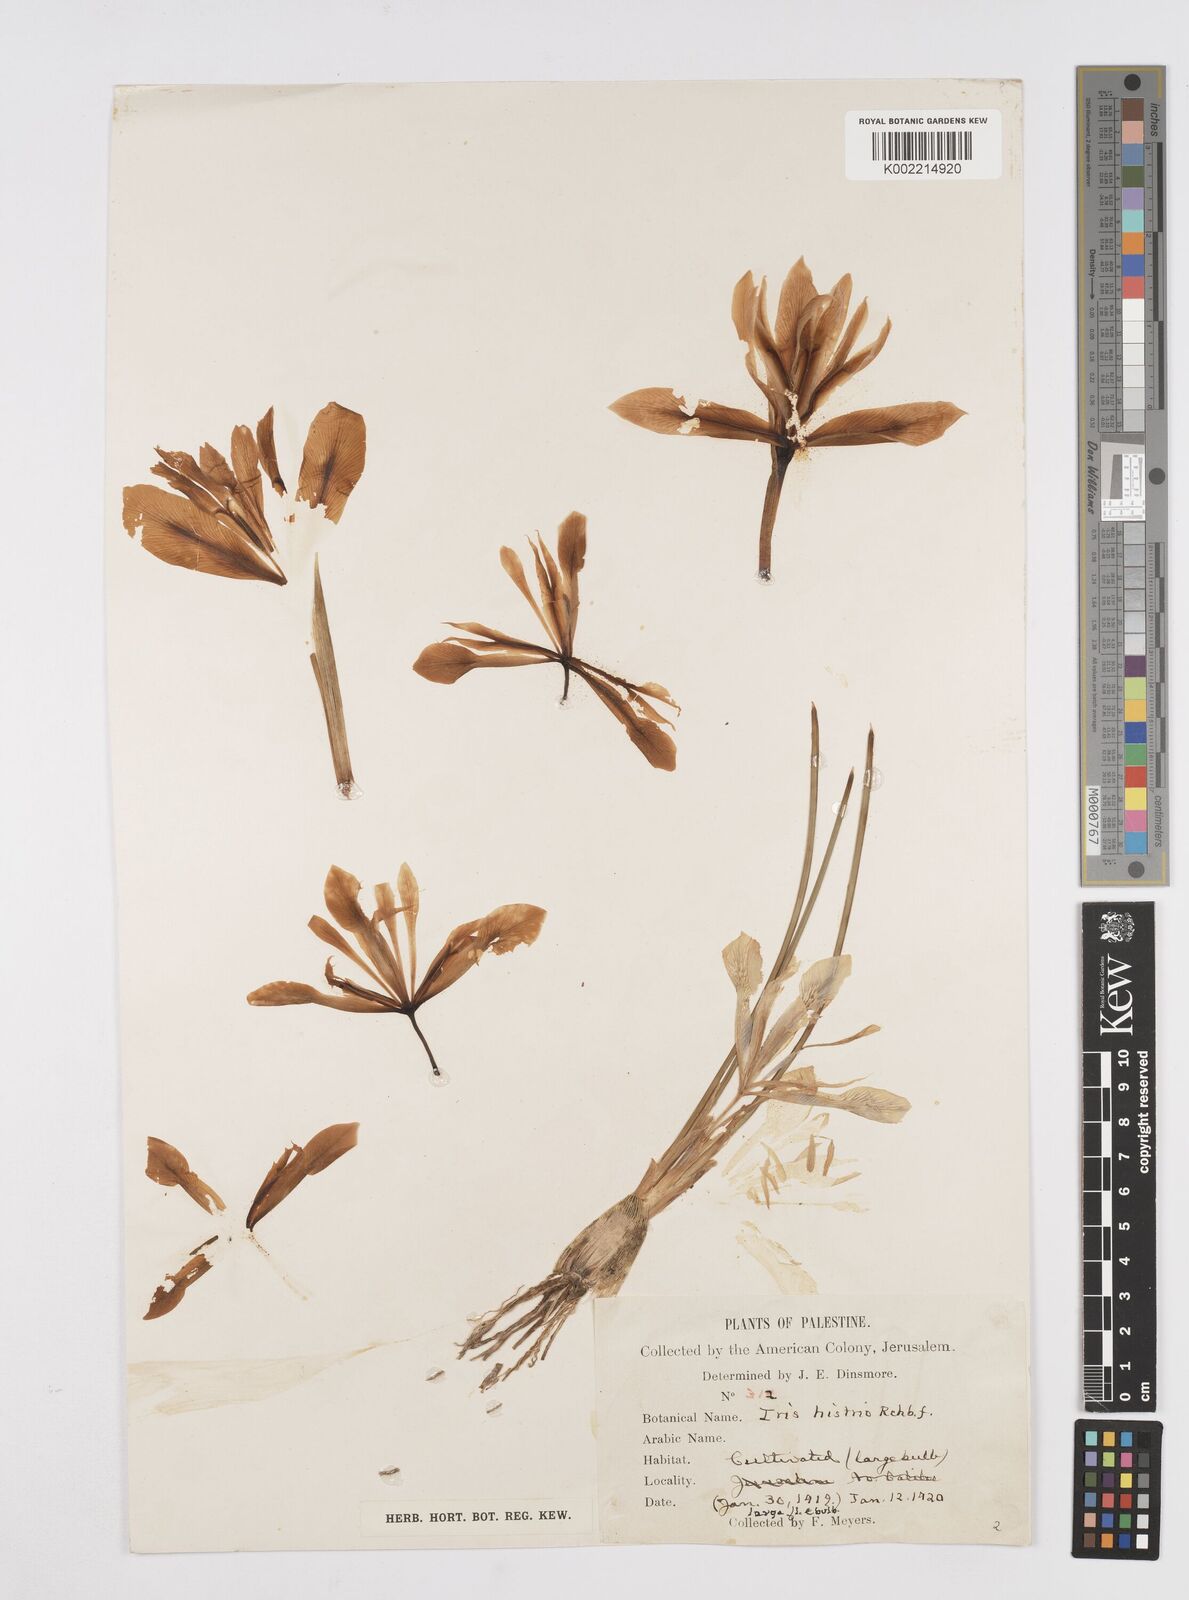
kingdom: Plantae
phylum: Tracheophyta
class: Liliopsida
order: Asparagales
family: Iridaceae
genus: Iris
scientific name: Iris histrio
